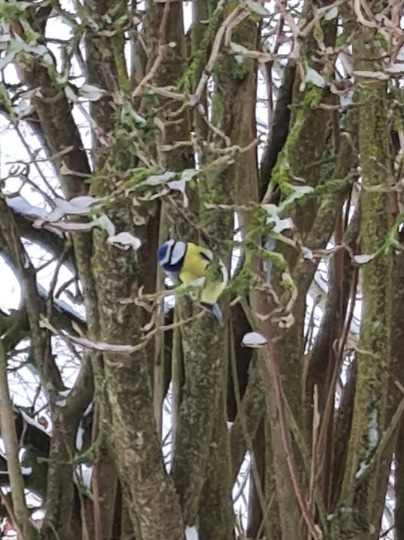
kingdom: Animalia
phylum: Chordata
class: Aves
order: Passeriformes
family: Paridae
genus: Cyanistes
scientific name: Cyanistes caeruleus
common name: Blåmejse
